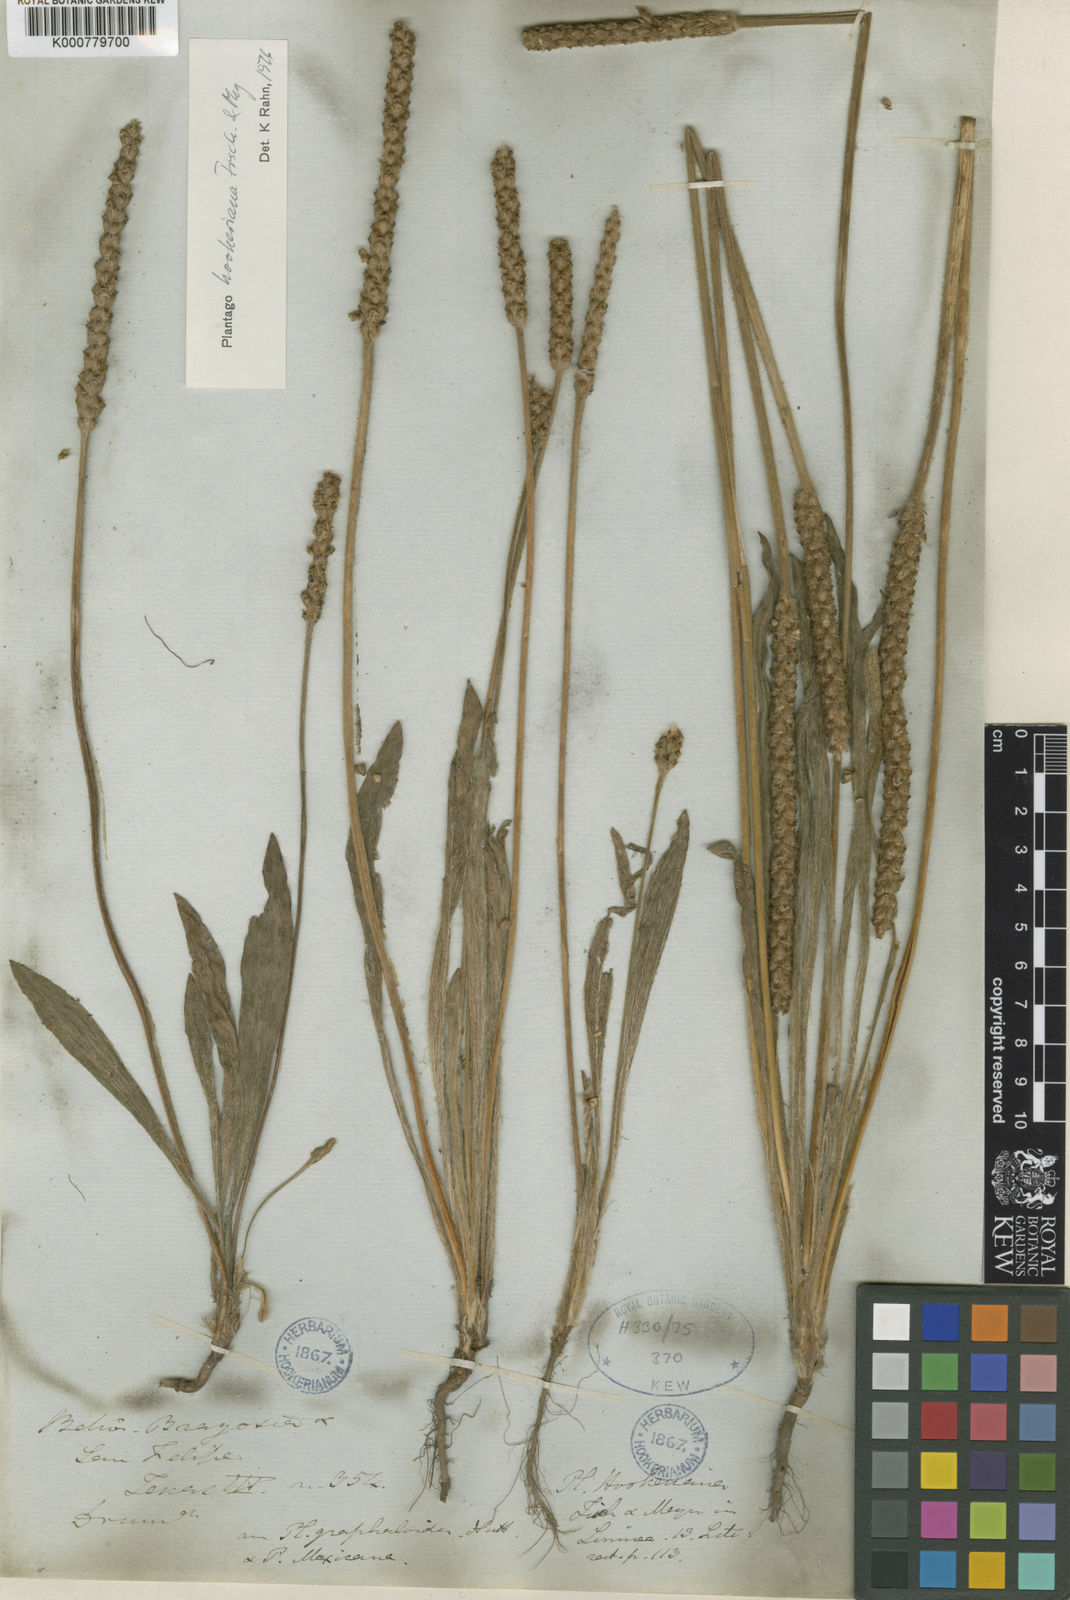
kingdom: Plantae
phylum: Tracheophyta
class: Magnoliopsida
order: Lamiales
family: Plantaginaceae
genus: Plantago
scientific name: Plantago hookeriana
